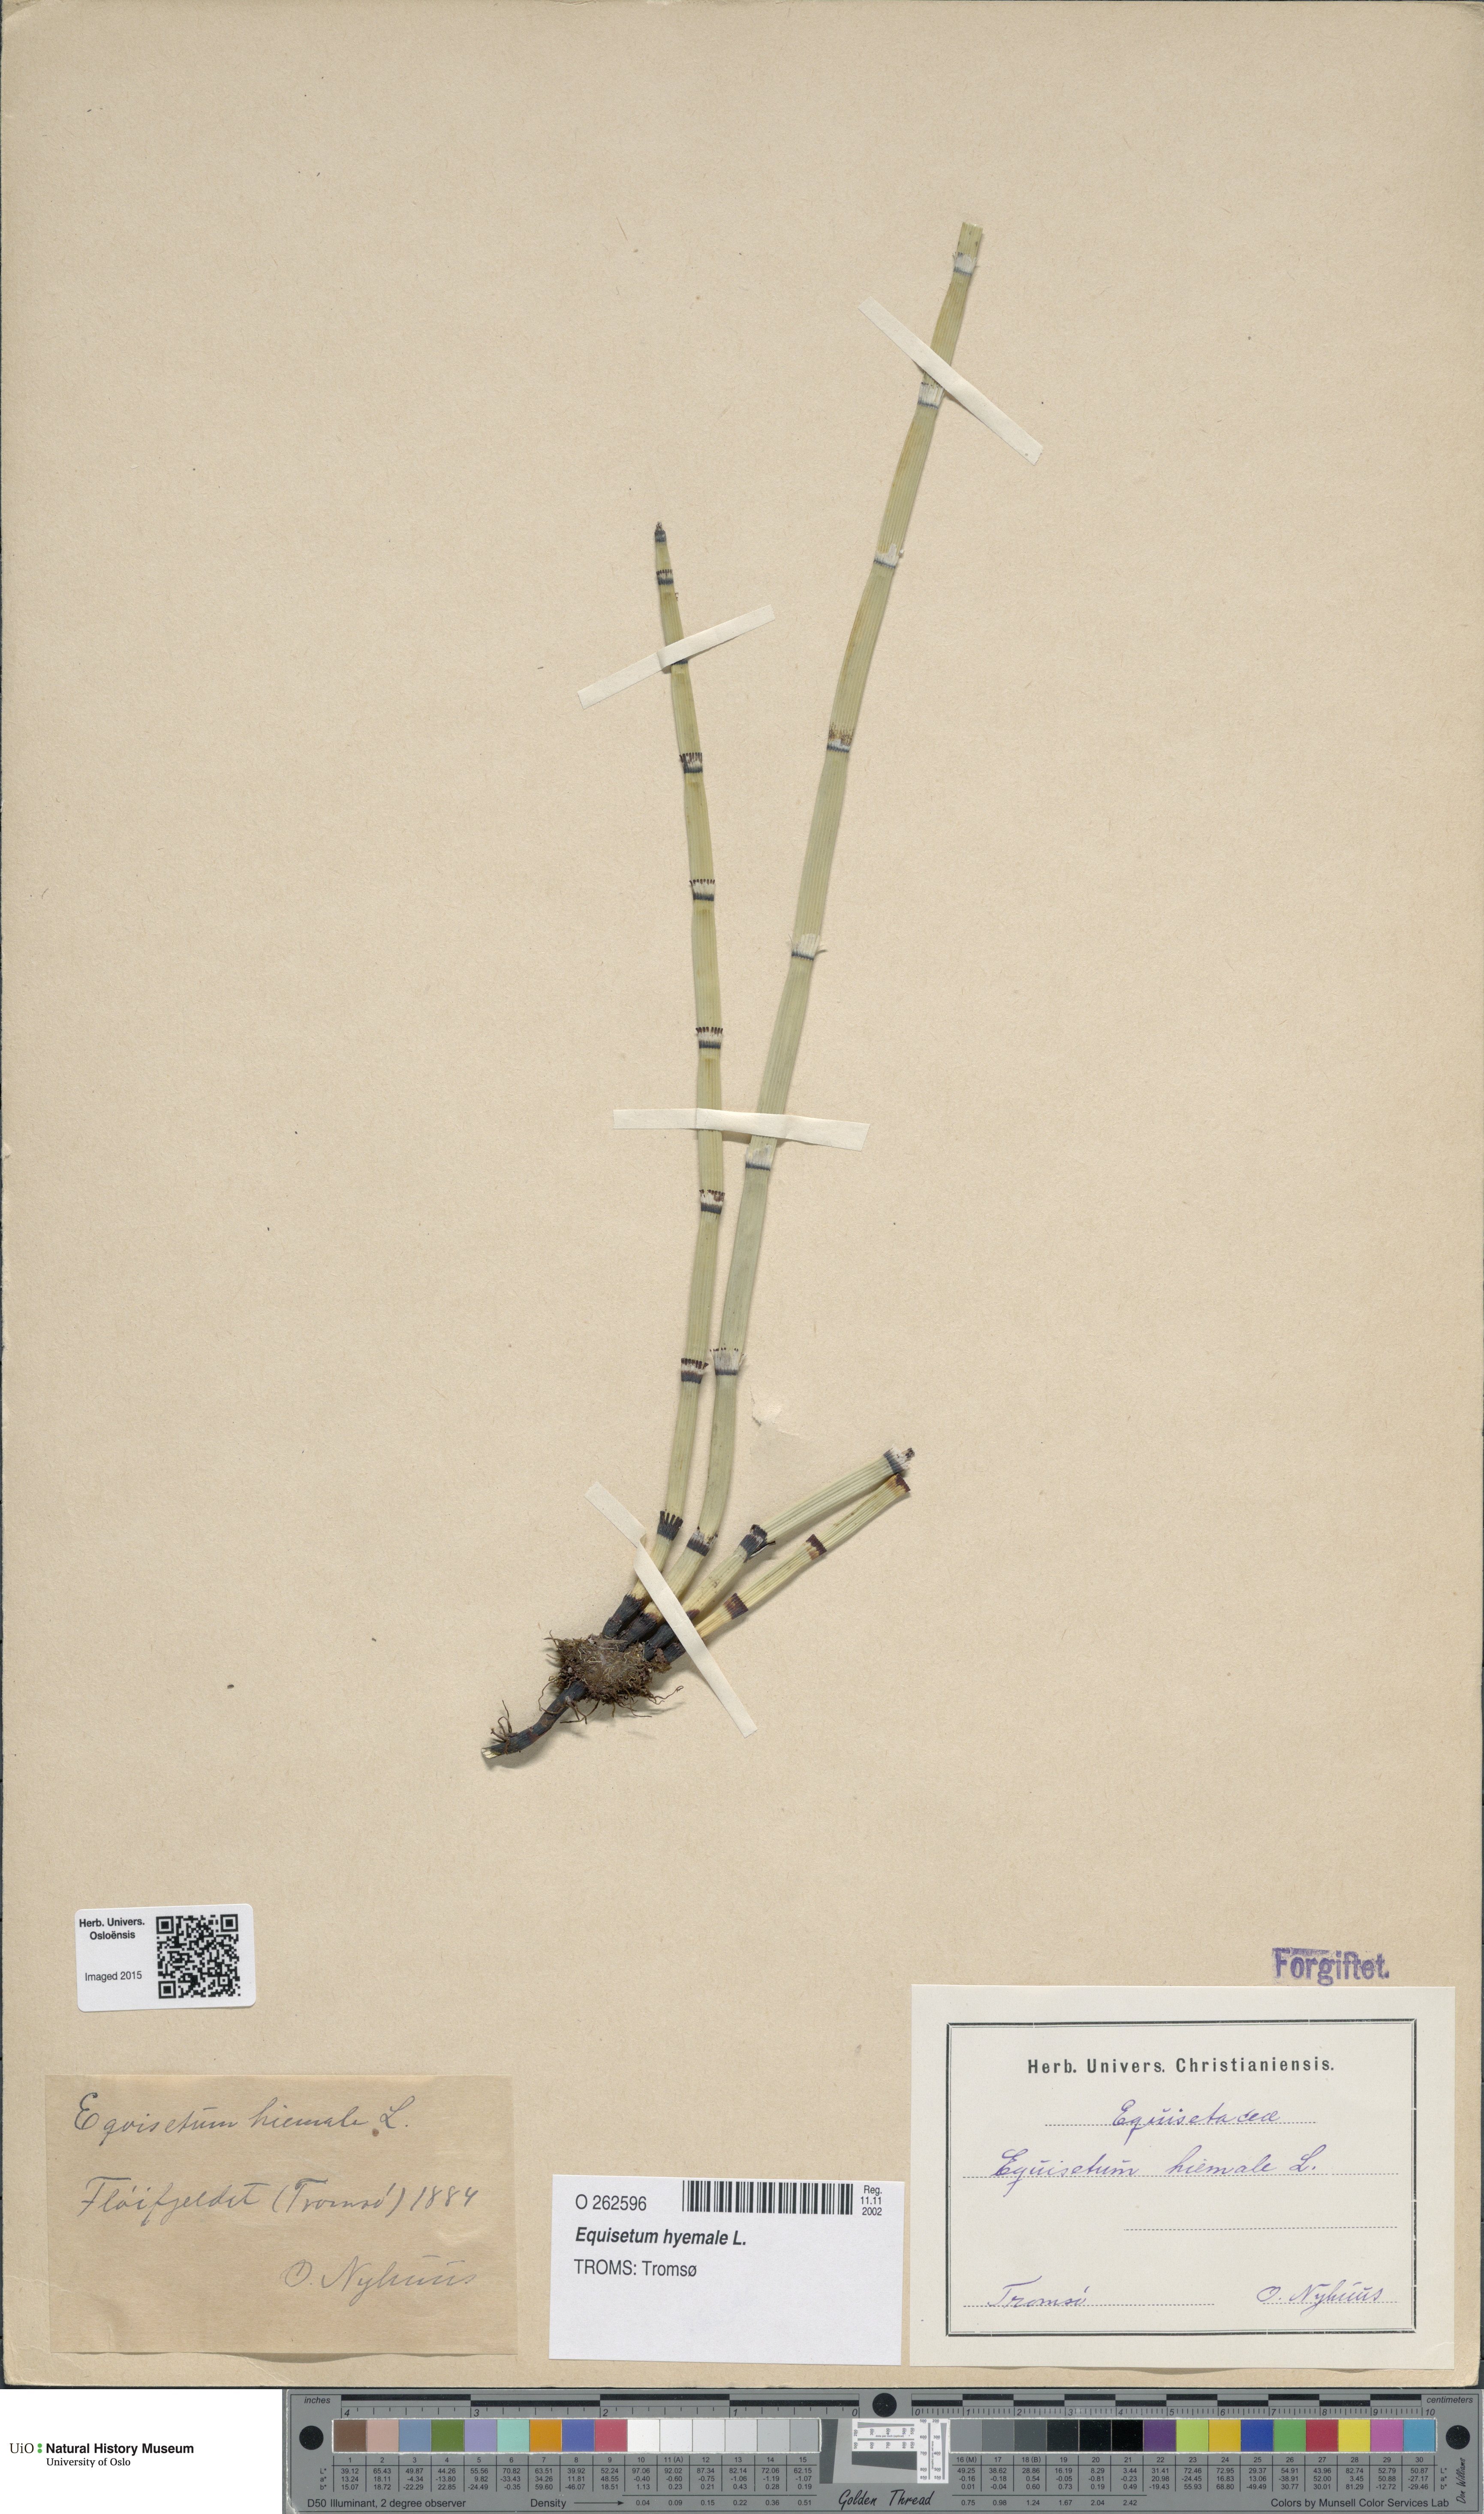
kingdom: Plantae
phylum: Tracheophyta
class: Polypodiopsida
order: Equisetales
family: Equisetaceae
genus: Equisetum
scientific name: Equisetum hyemale
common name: Rough horsetail
